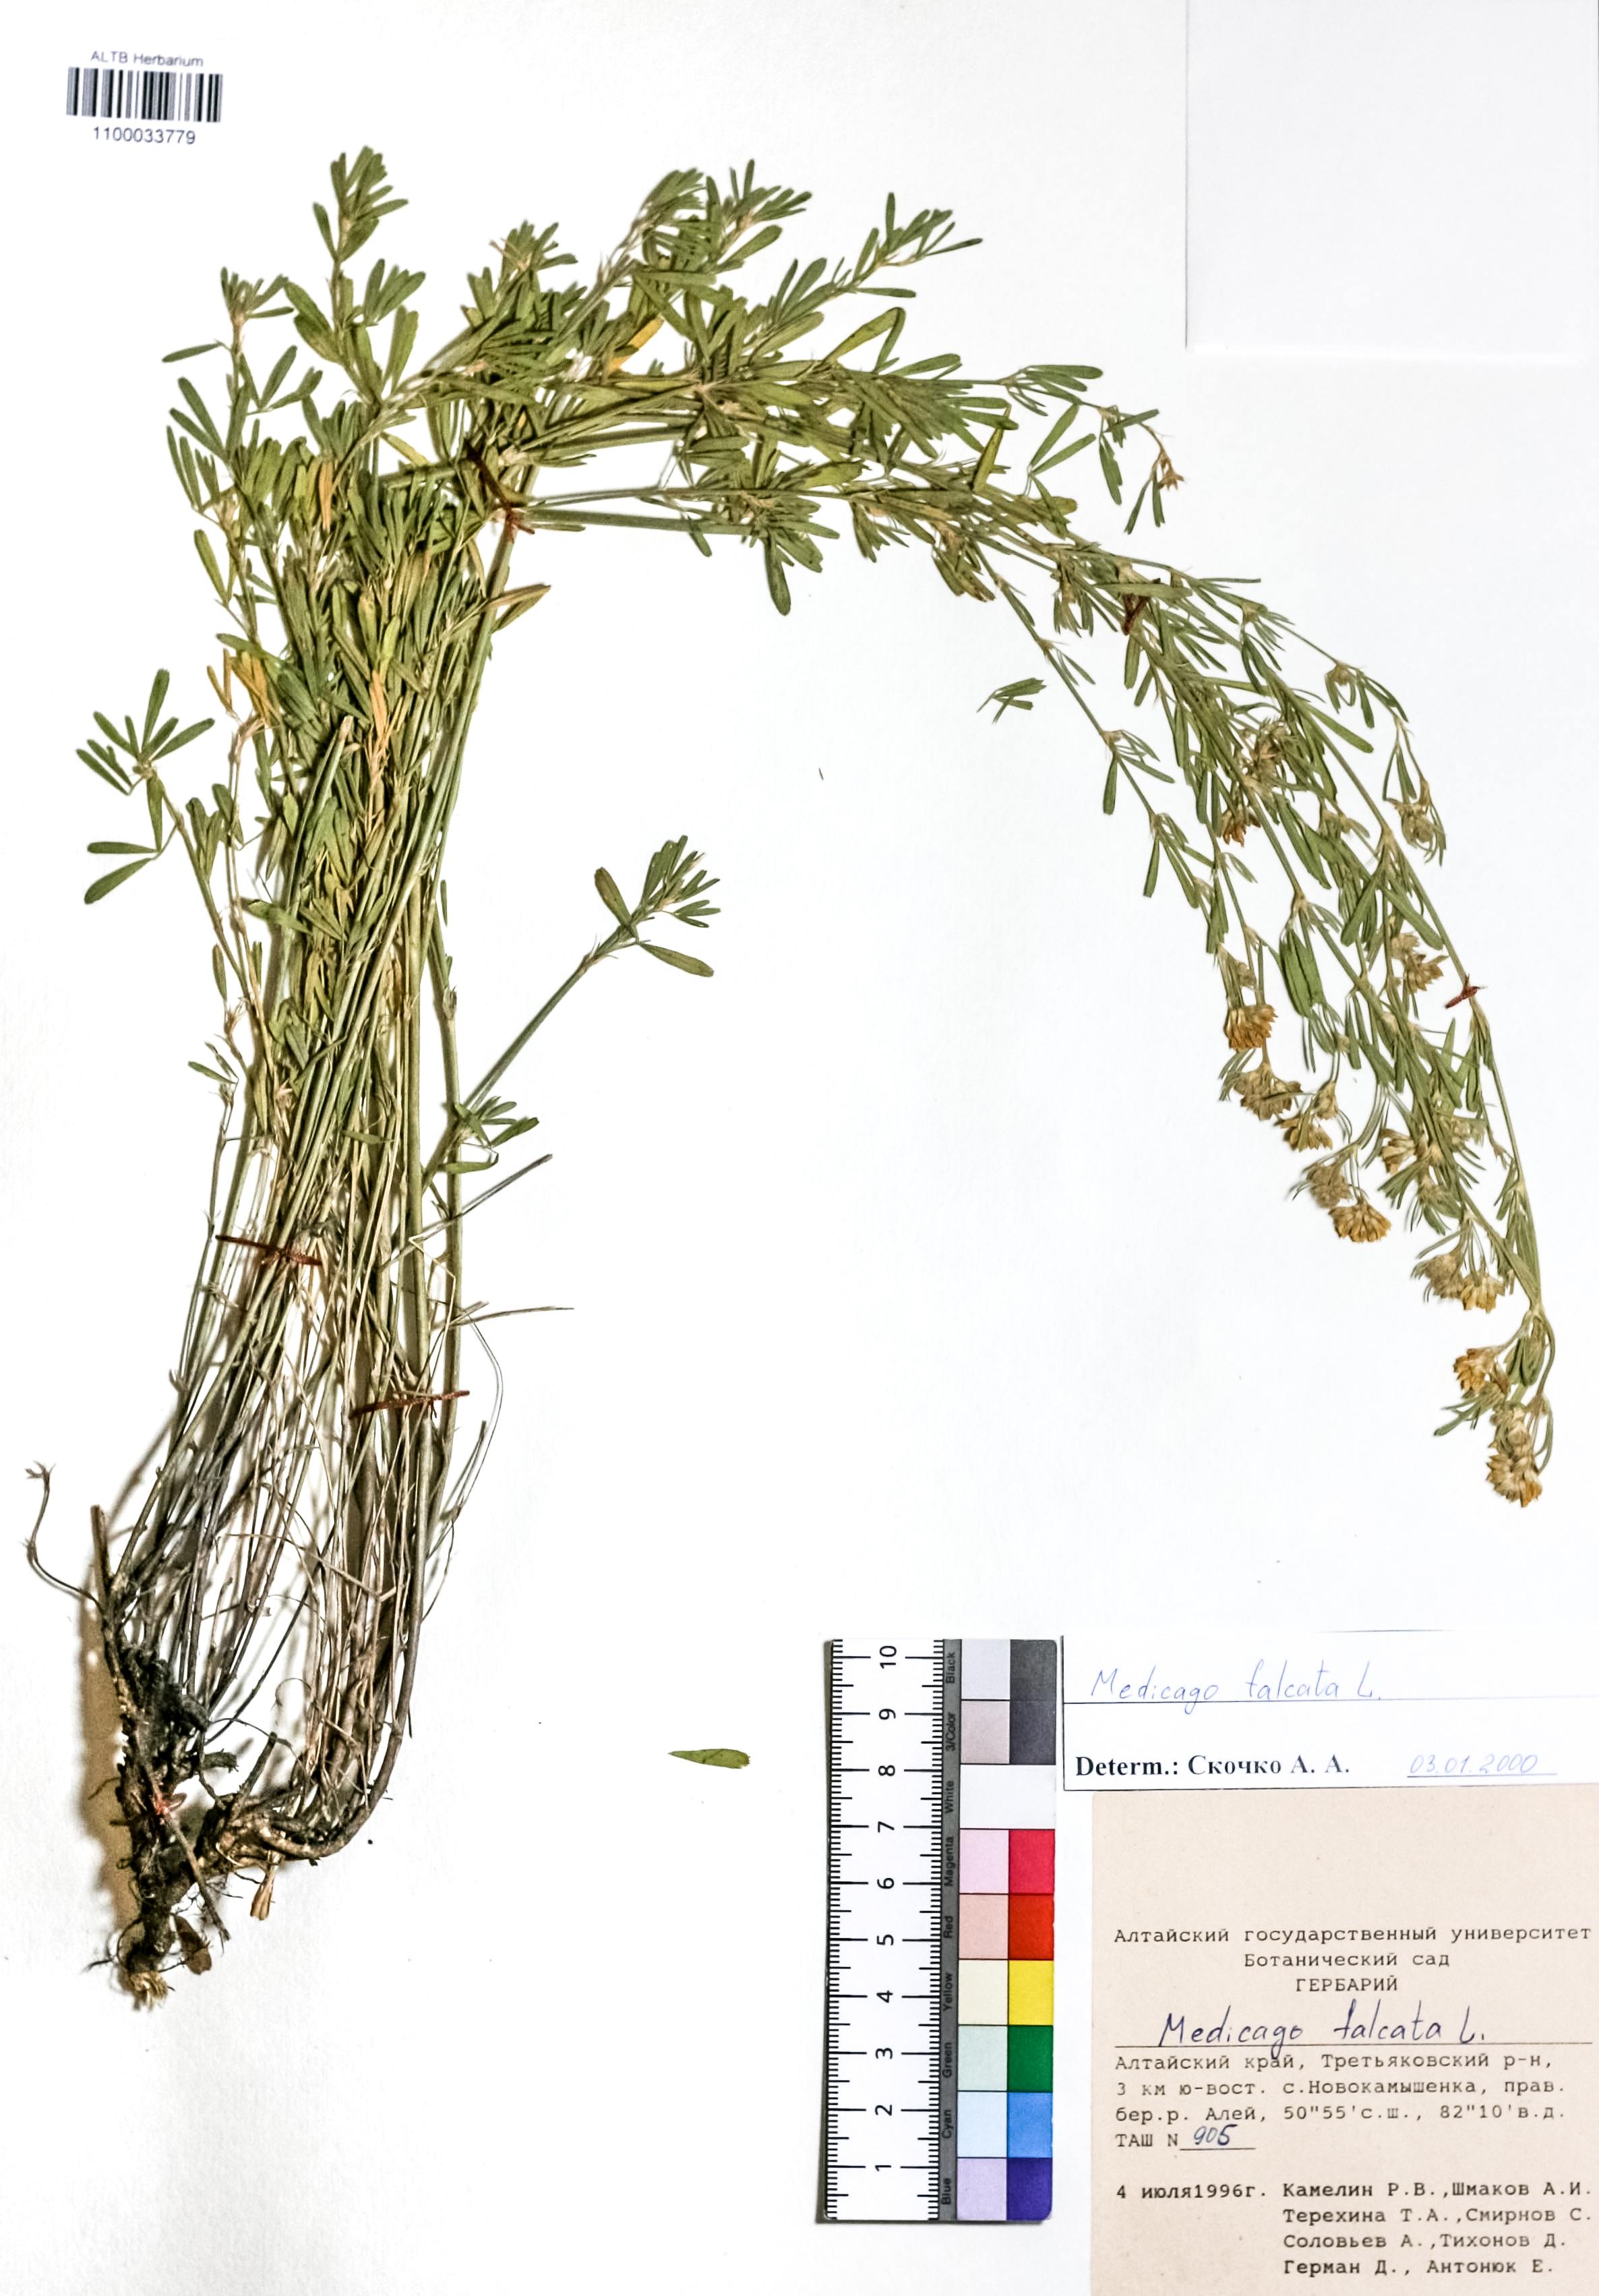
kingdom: Plantae
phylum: Tracheophyta
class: Magnoliopsida
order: Fabales
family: Fabaceae
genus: Medicago
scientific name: Medicago falcata
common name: Sickle medick
